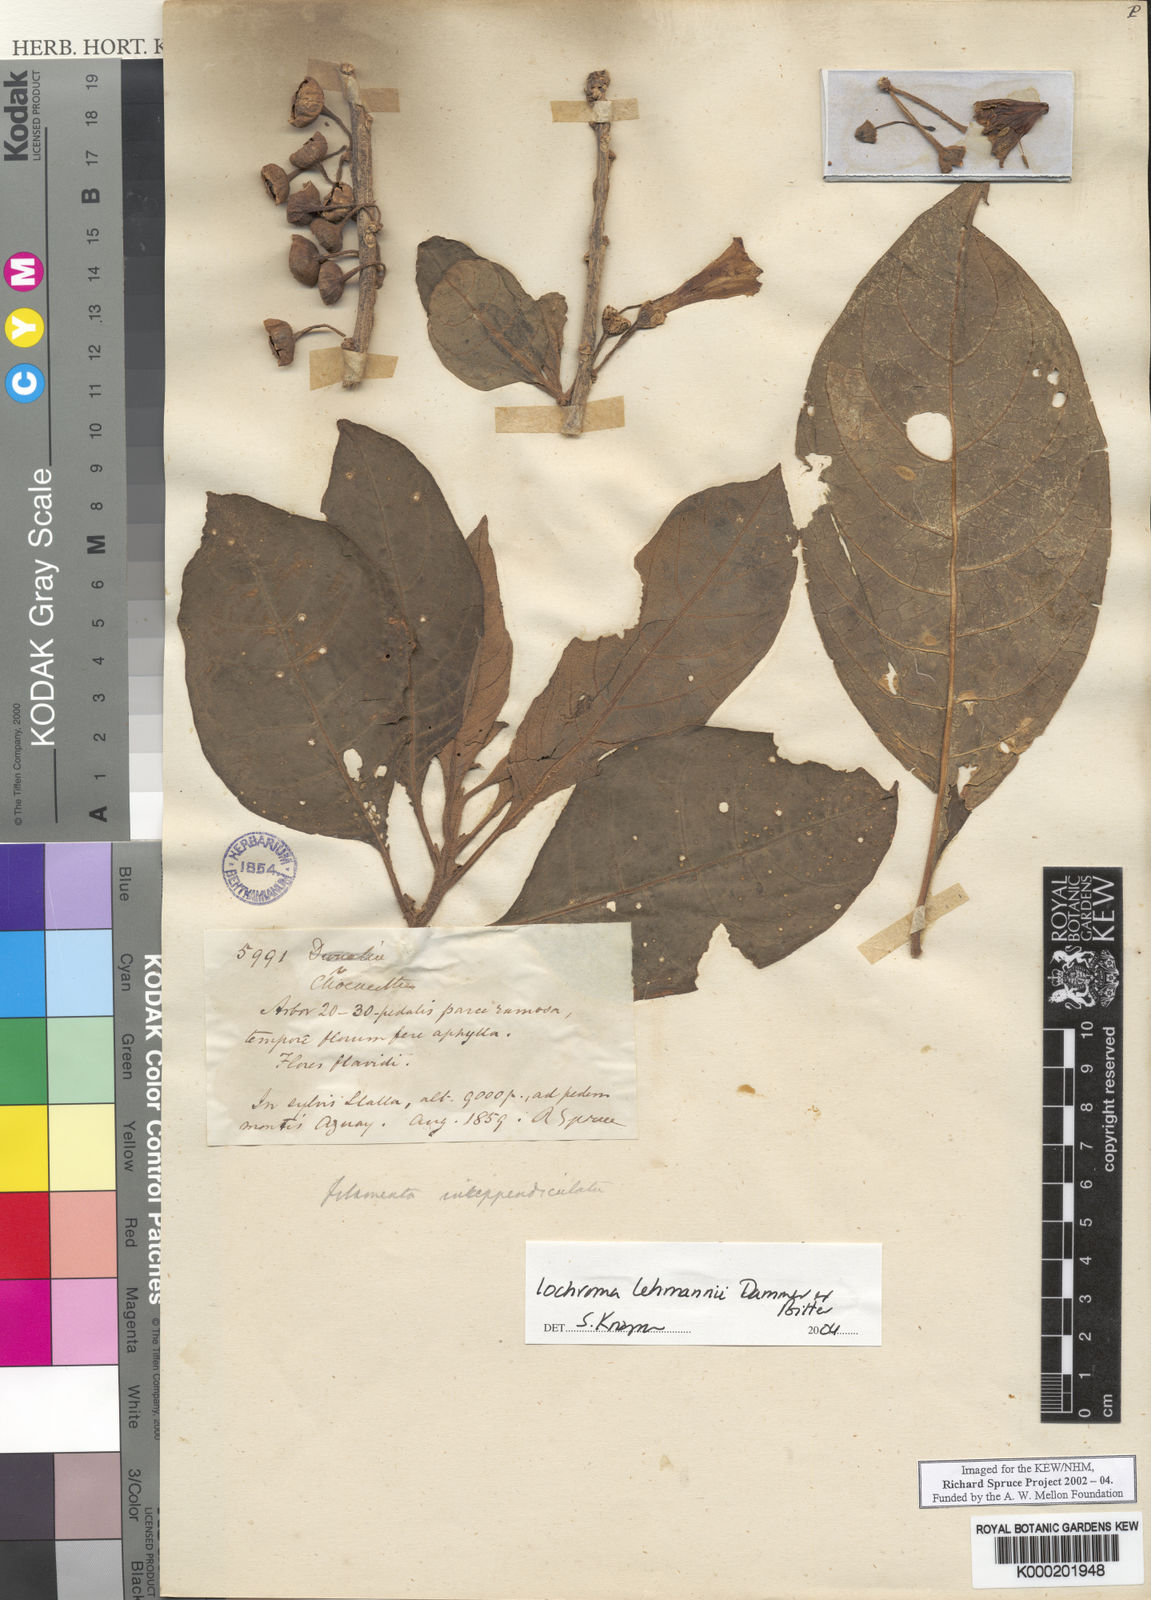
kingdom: Plantae
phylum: Tracheophyta
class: Magnoliopsida
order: Solanales
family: Solanaceae
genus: Iochroma
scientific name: Iochroma lehmannii
